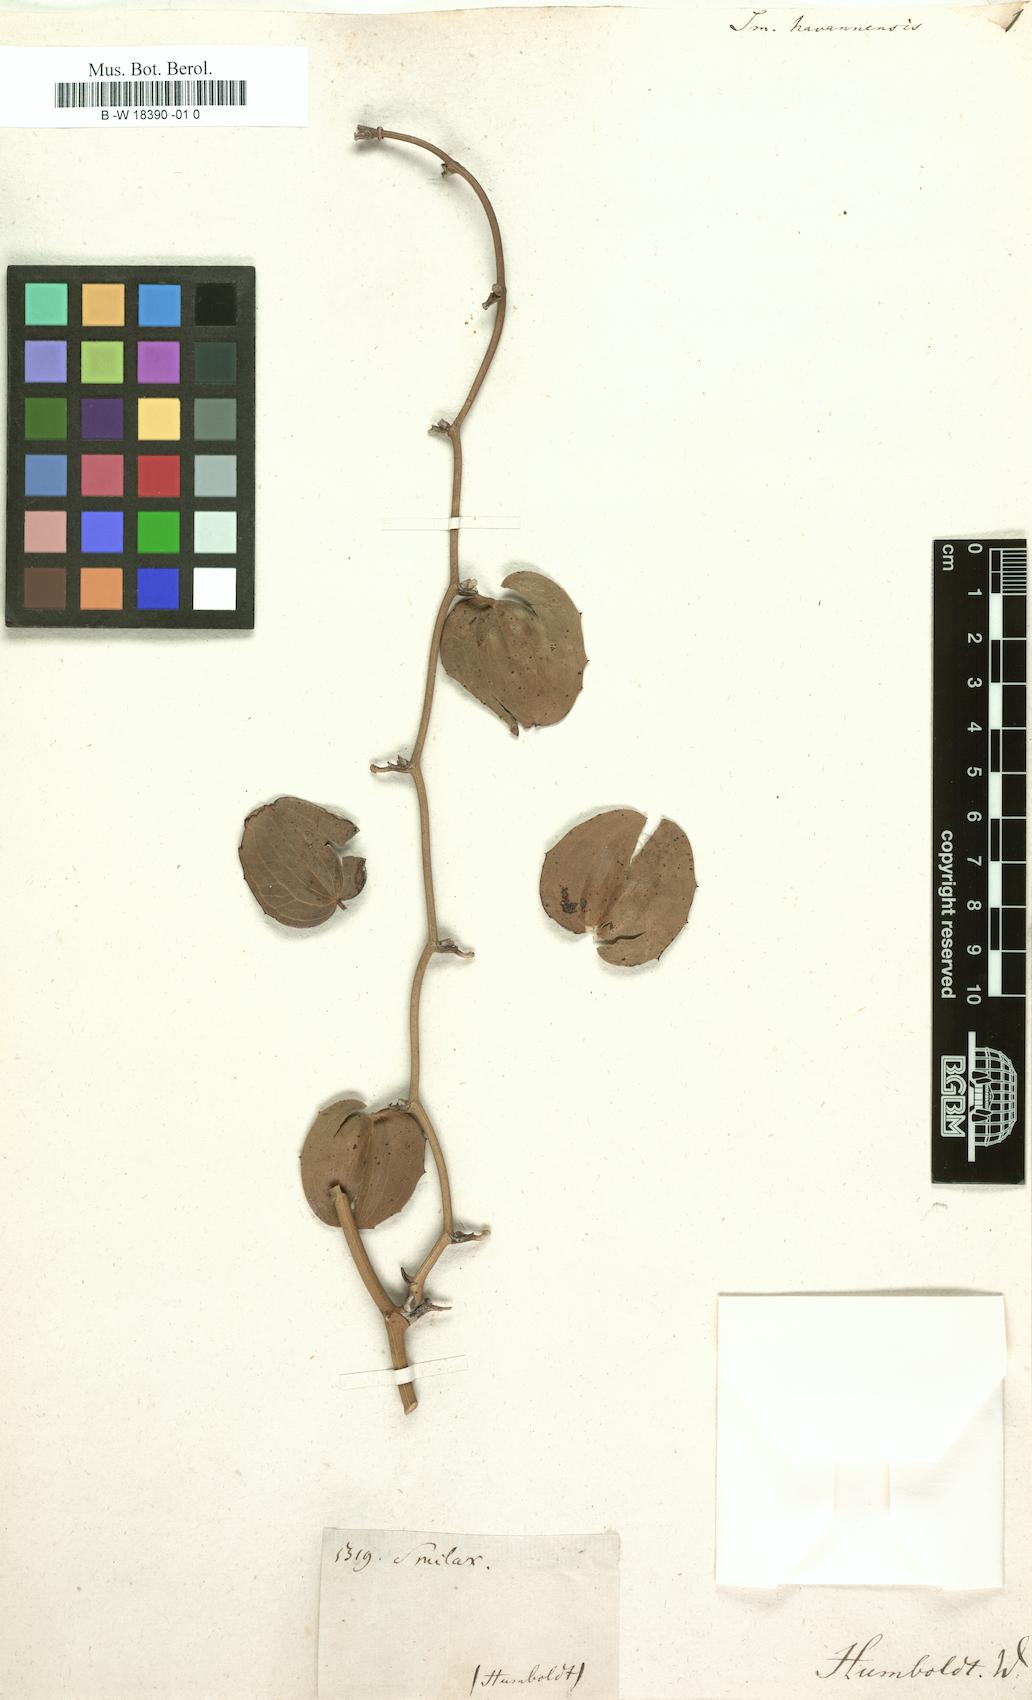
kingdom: Plantae
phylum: Tracheophyta
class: Liliopsida
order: Liliales
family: Smilacaceae
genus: Smilax
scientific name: Smilax havanensis
